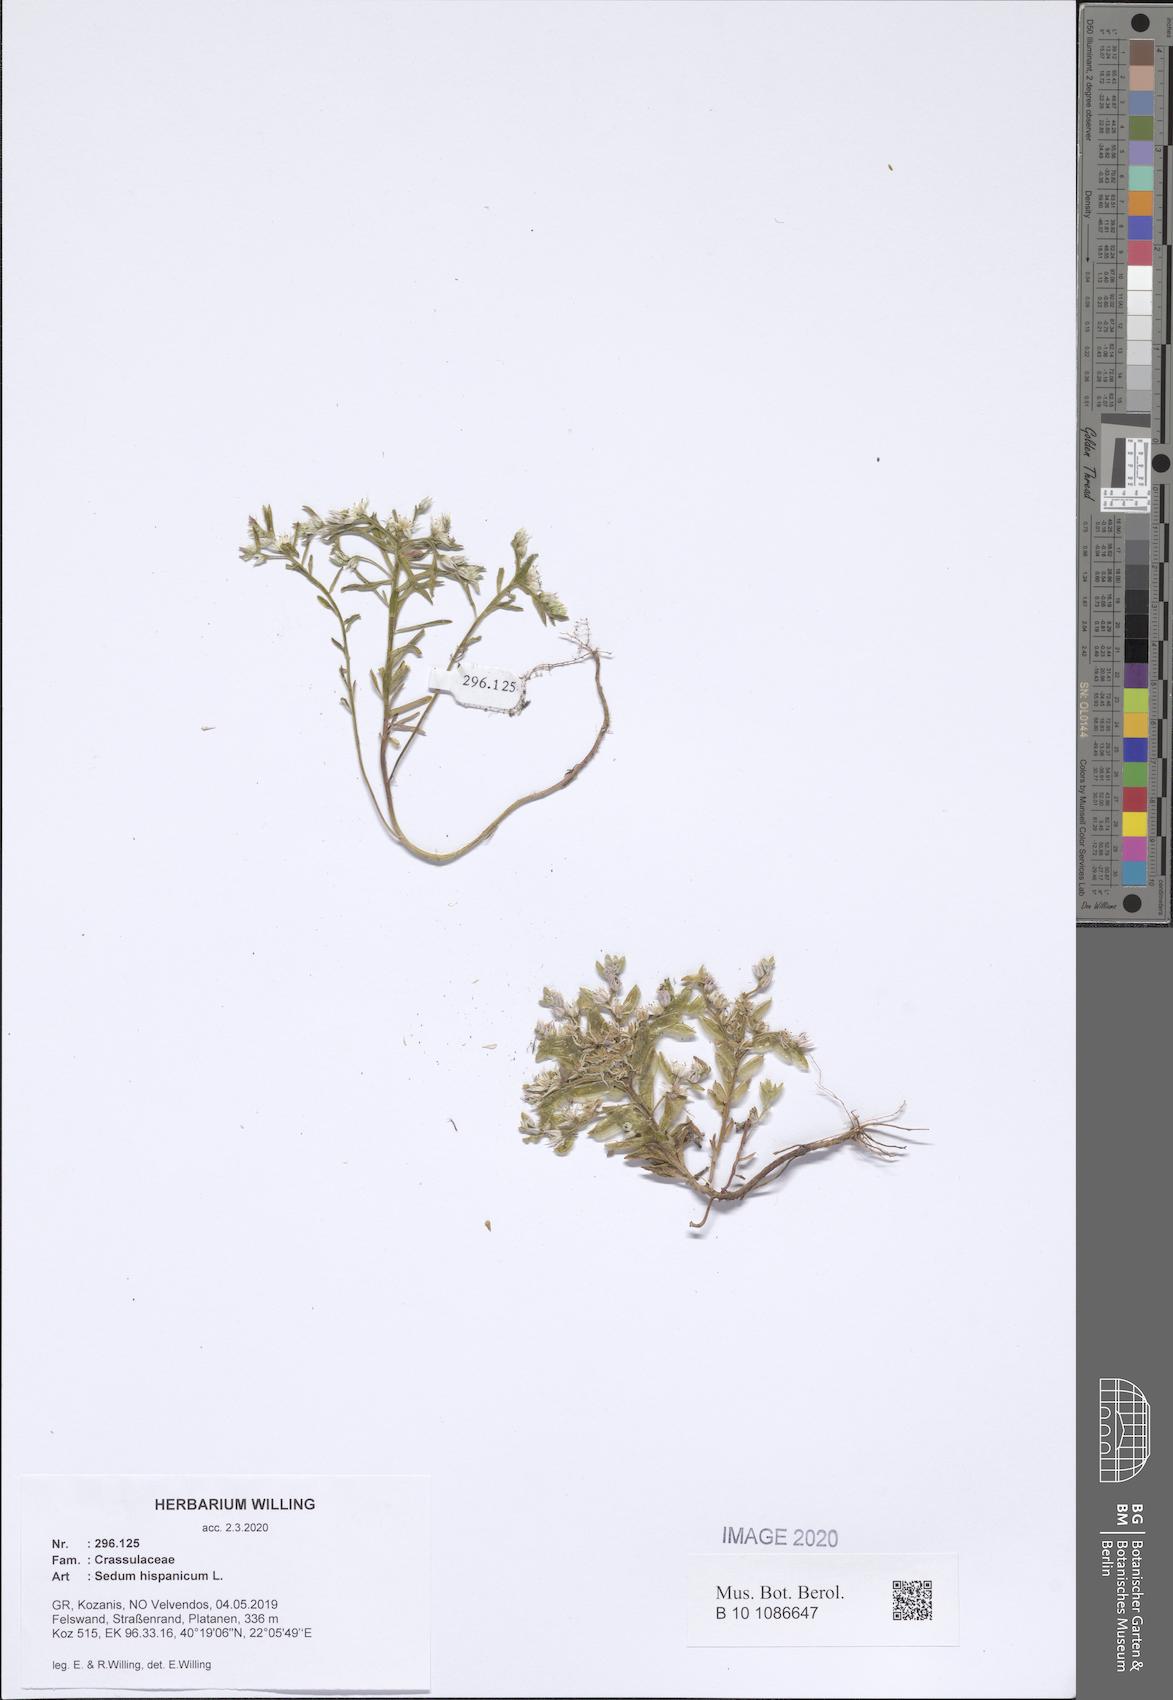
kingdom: Plantae
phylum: Tracheophyta
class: Magnoliopsida
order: Saxifragales
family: Crassulaceae
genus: Sedum
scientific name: Sedum hispanicum
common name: Spanish stonecrop
